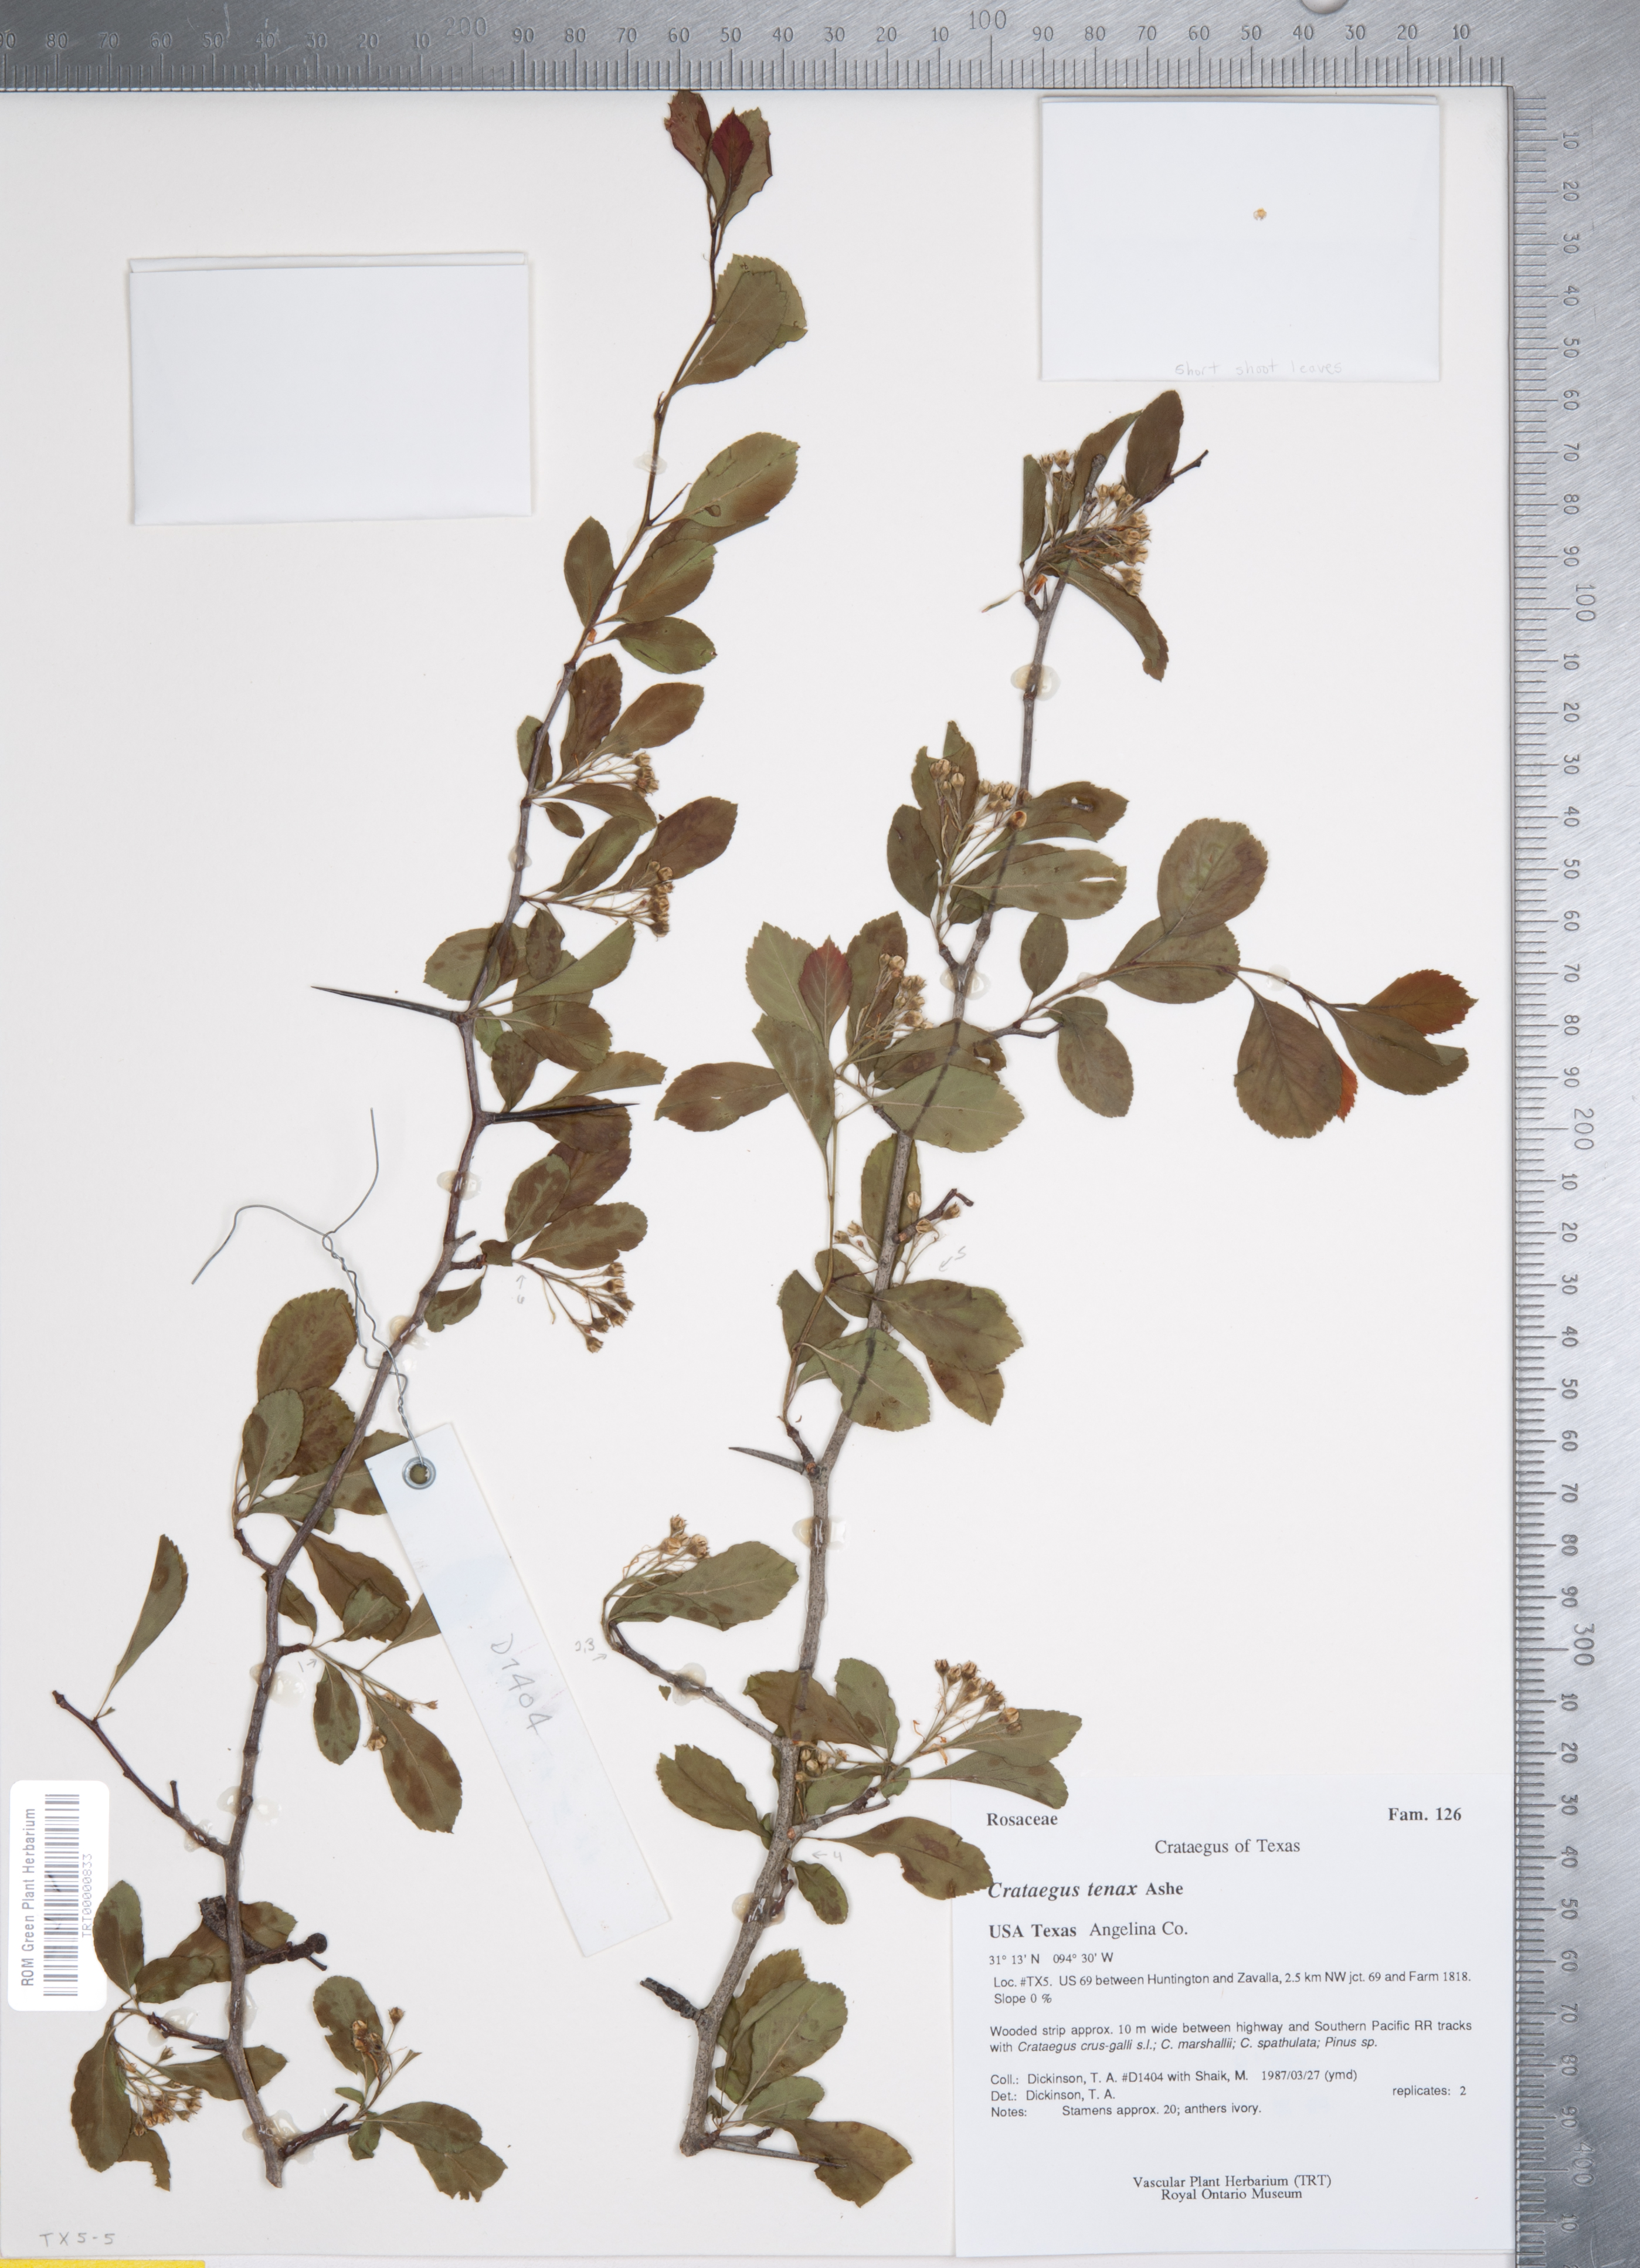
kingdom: Plantae
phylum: Tracheophyta
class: Magnoliopsida
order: Rosales
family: Rosaceae
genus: Crataegus
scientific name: Crataegus crus-galli
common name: Cockspurthorn
